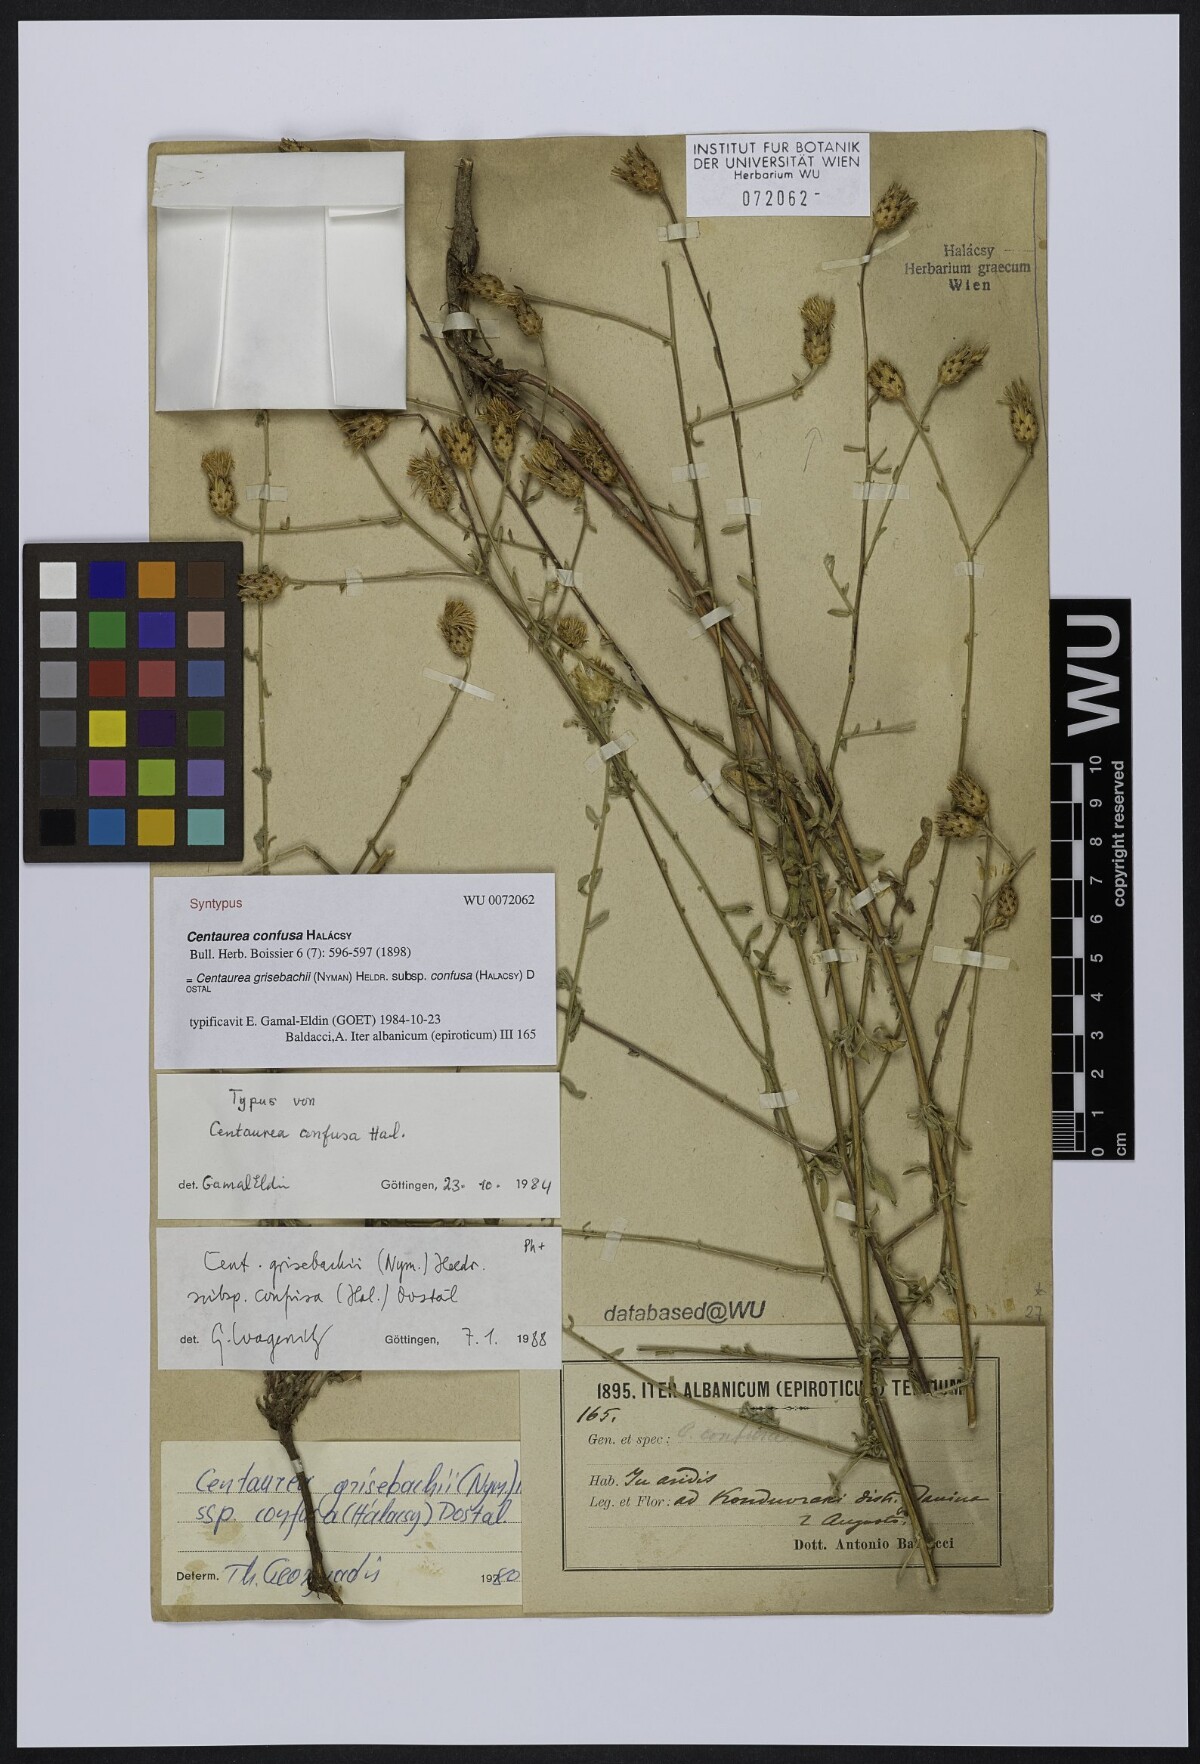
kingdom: Plantae
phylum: Tracheophyta
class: Magnoliopsida
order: Asterales
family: Asteraceae
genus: Centaurea
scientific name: Centaurea grisebachii
